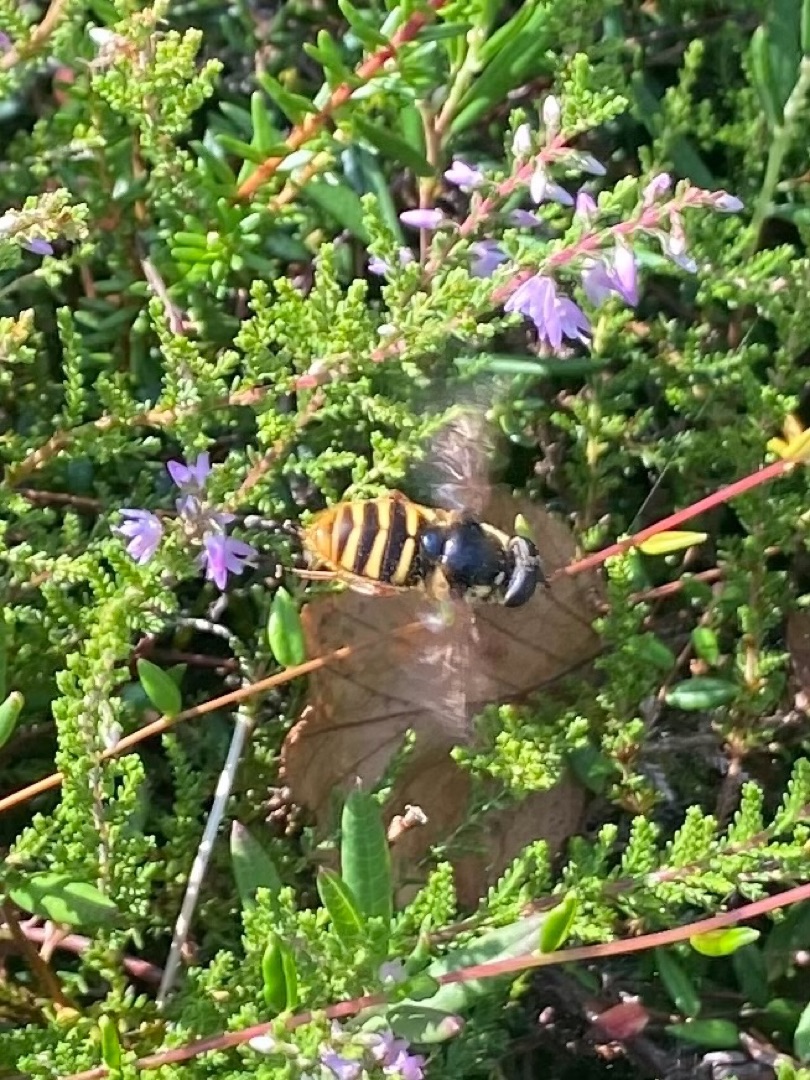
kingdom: Animalia
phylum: Arthropoda
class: Insecta
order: Diptera
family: Syrphidae
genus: Sericomyia
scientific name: Sericomyia silentis
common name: Tørve-silkesvirreflue
